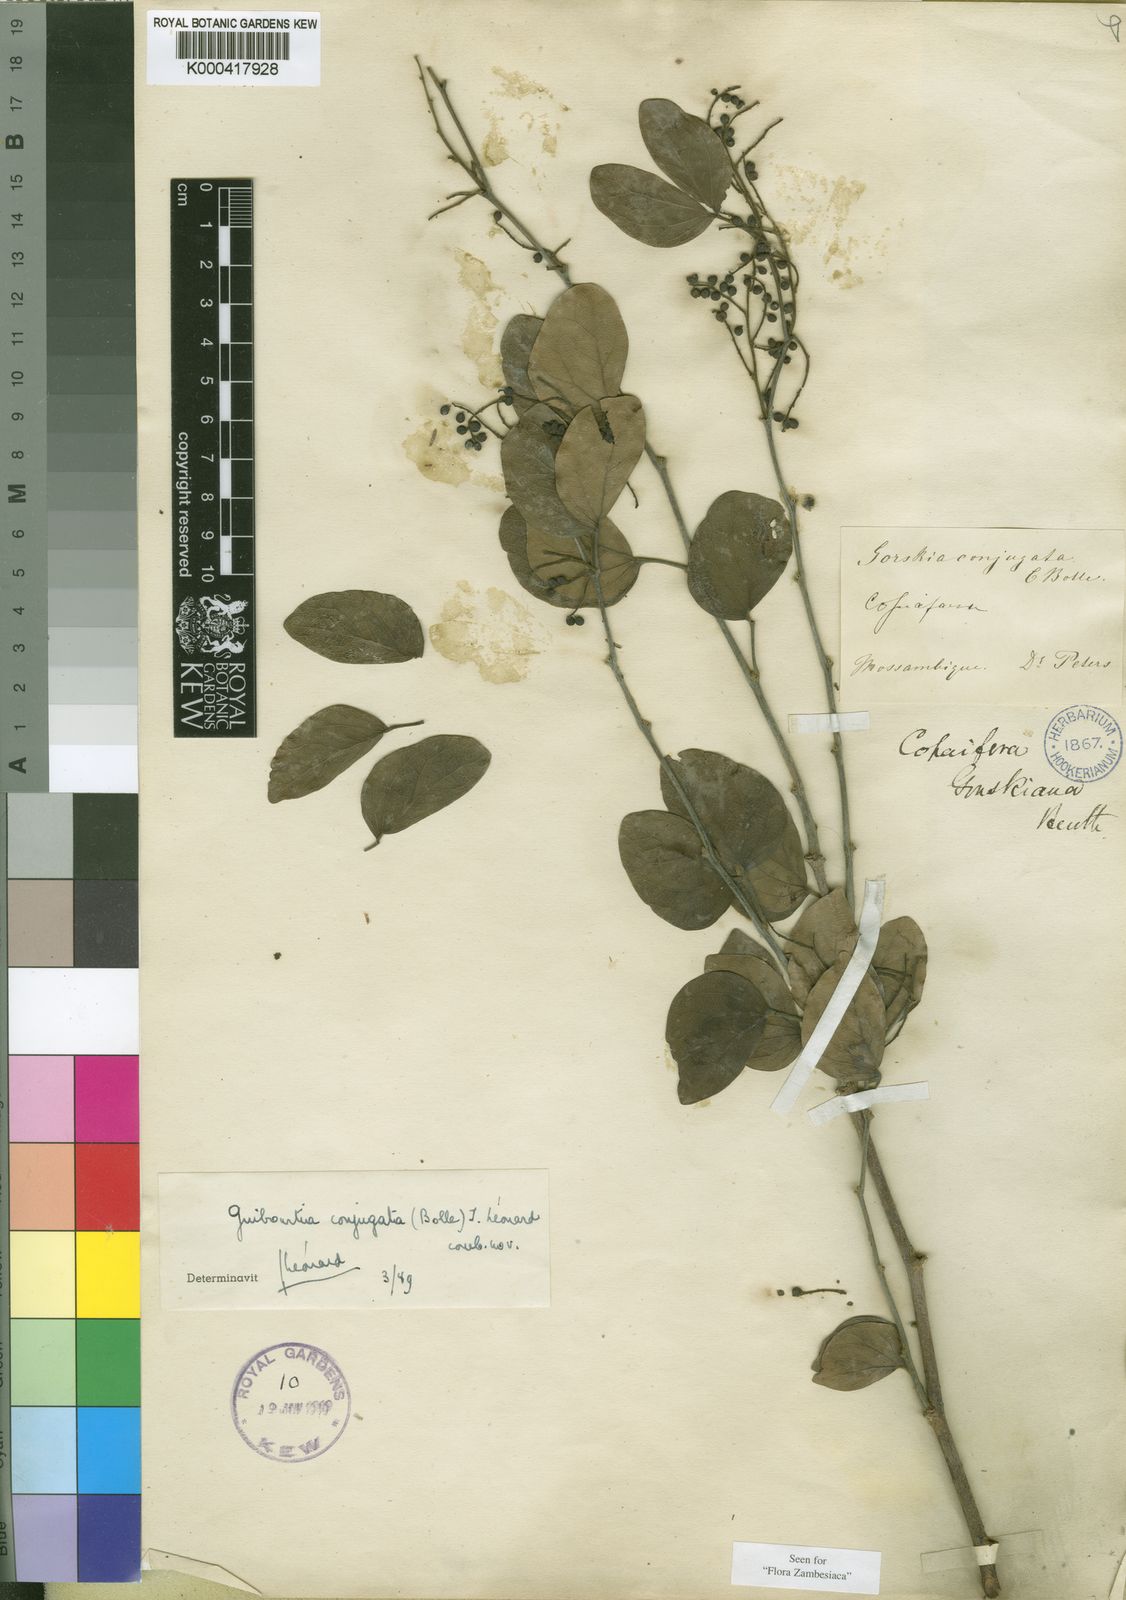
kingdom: Plantae
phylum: Tracheophyta
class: Magnoliopsida
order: Fabales
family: Fabaceae
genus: Guibourtia
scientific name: Guibourtia
